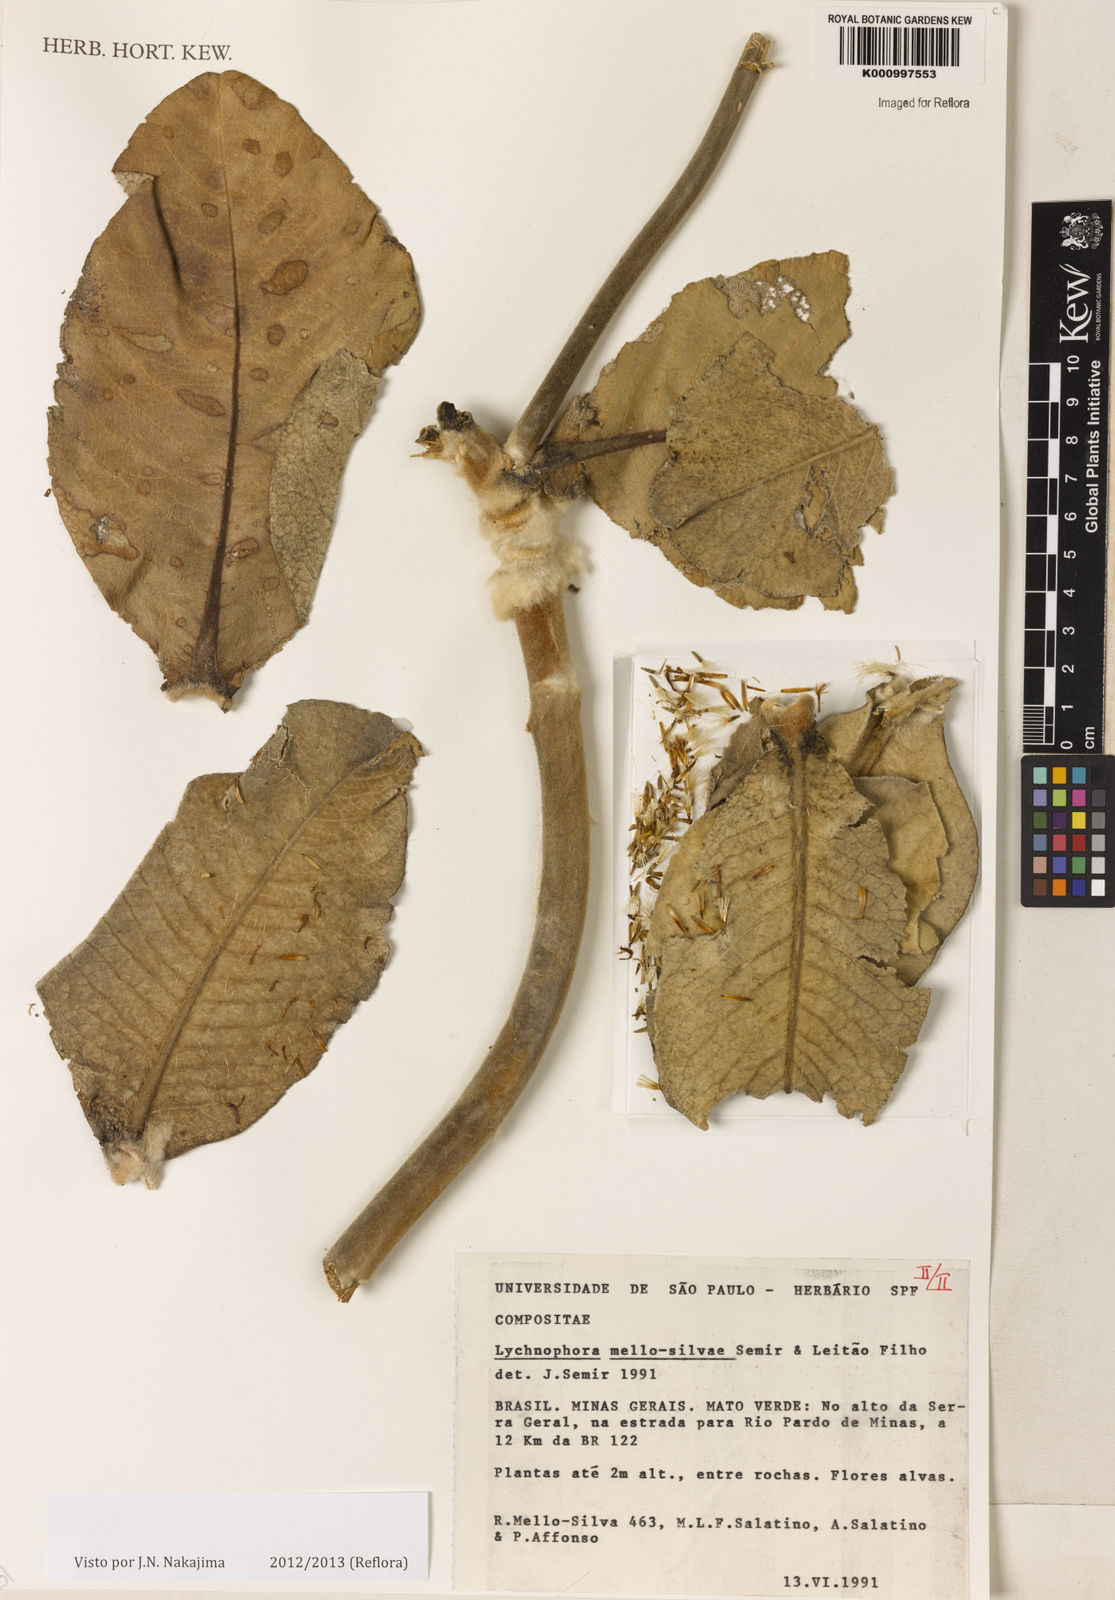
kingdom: Plantae
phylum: Tracheophyta
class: Magnoliopsida
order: Asterales
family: Asteraceae
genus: Lychnophora
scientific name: Lychnophora
